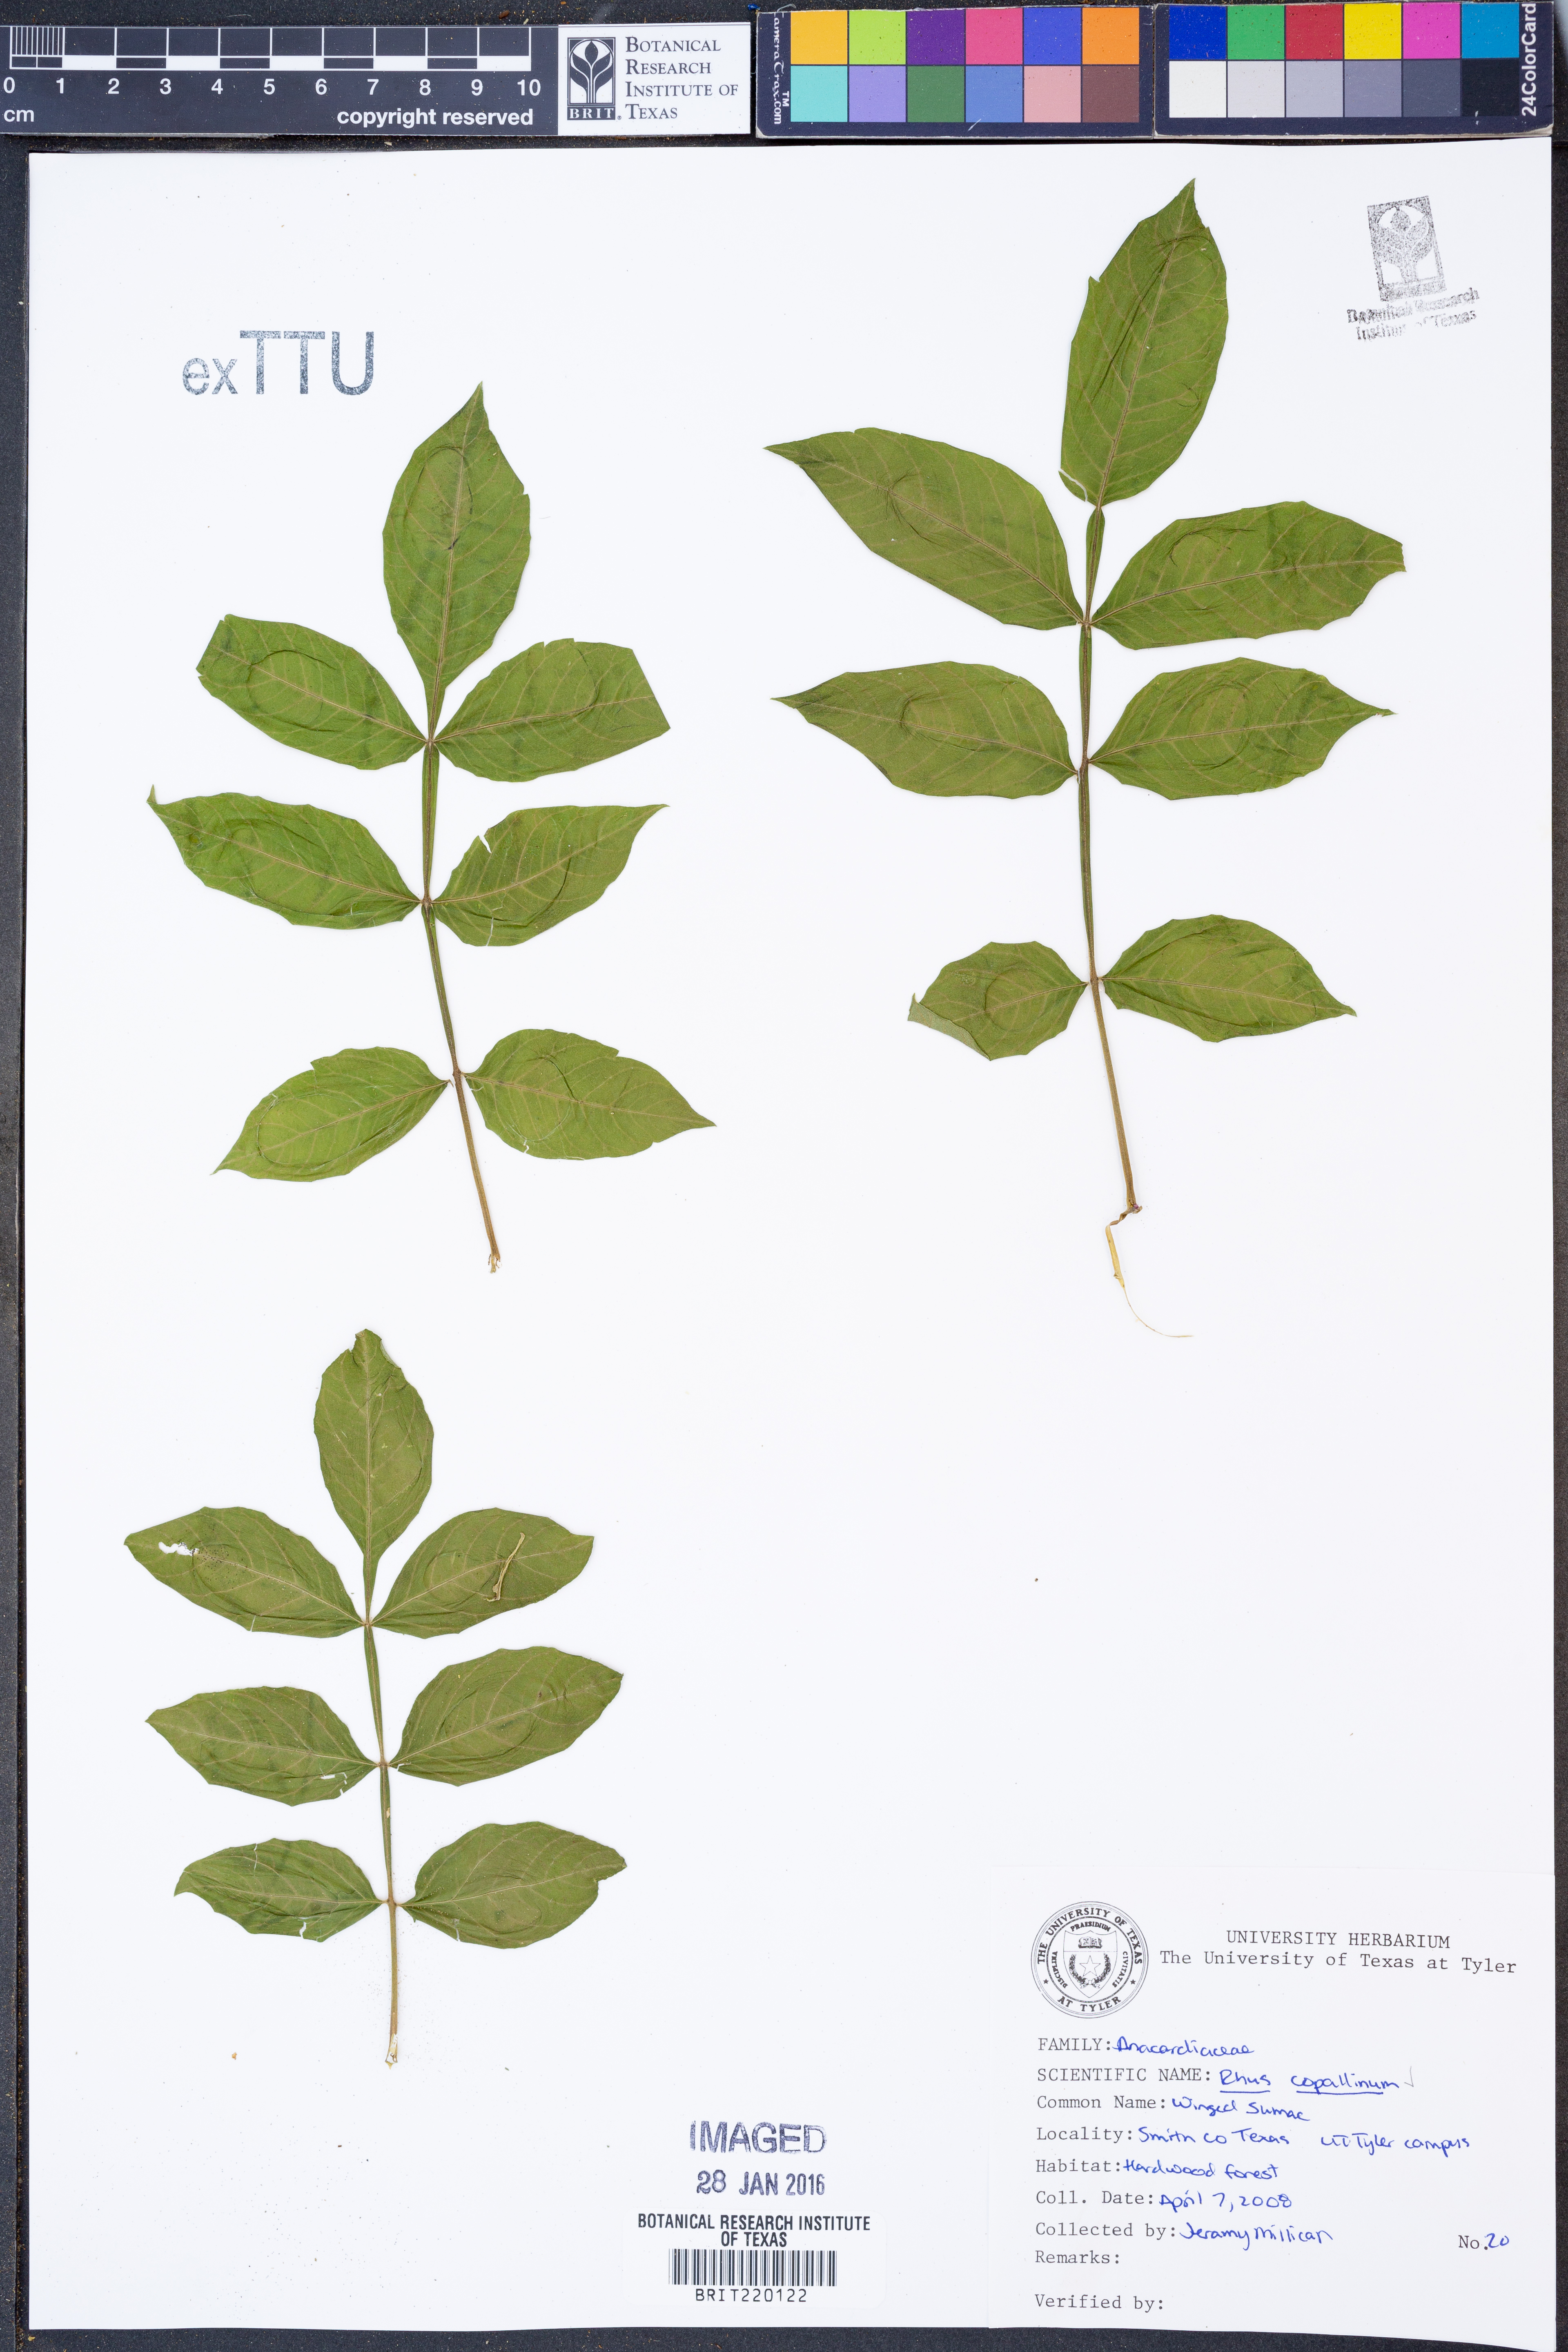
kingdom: Plantae
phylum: Tracheophyta
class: Magnoliopsida
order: Sapindales
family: Anacardiaceae
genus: Rhus
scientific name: Rhus copallina
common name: Shining sumac
